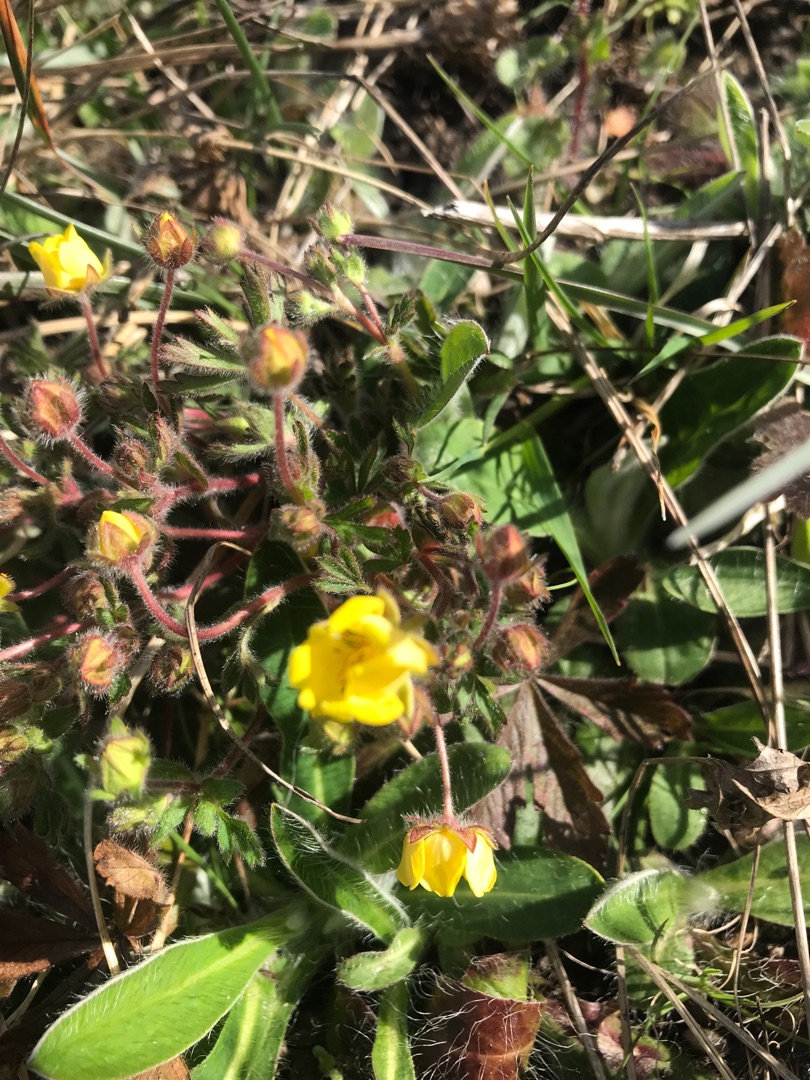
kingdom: Plantae
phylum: Tracheophyta
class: Magnoliopsida
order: Rosales
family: Rosaceae
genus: Potentilla
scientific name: Potentilla verna
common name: Vår-potentil
